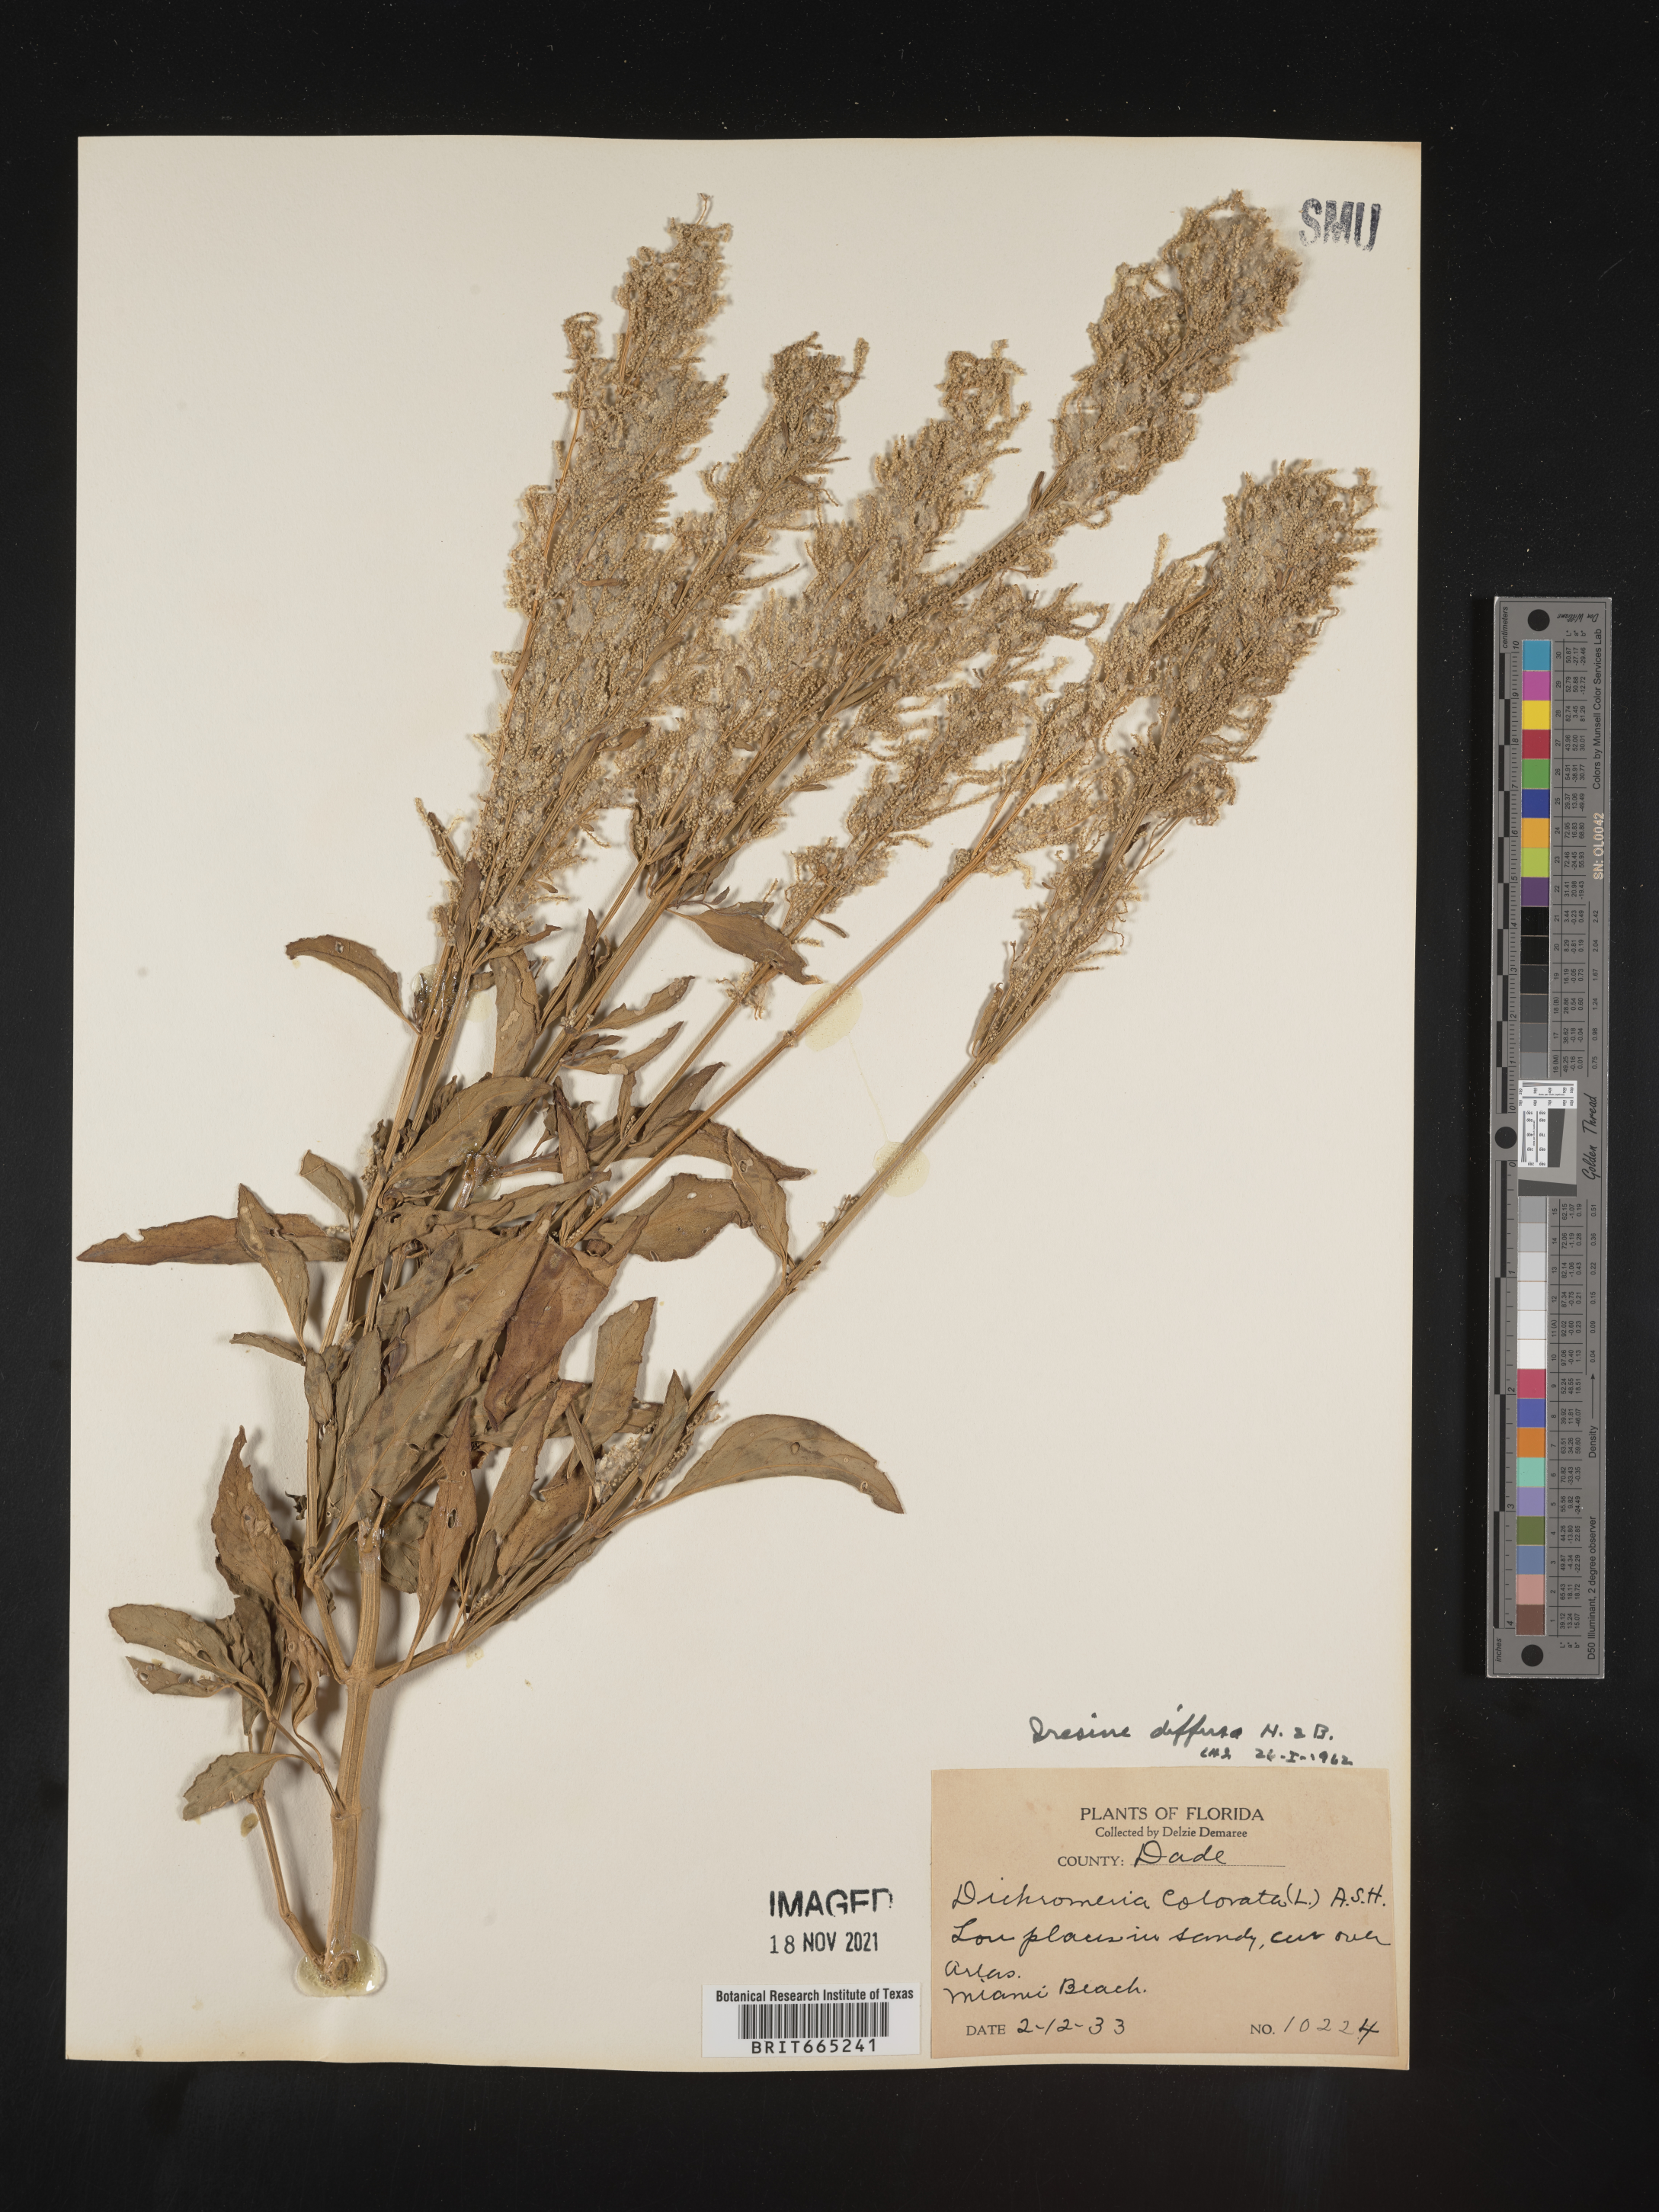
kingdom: Plantae
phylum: Tracheophyta
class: Magnoliopsida
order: Caryophyllales
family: Amaranthaceae
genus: Iresine
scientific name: Iresine
